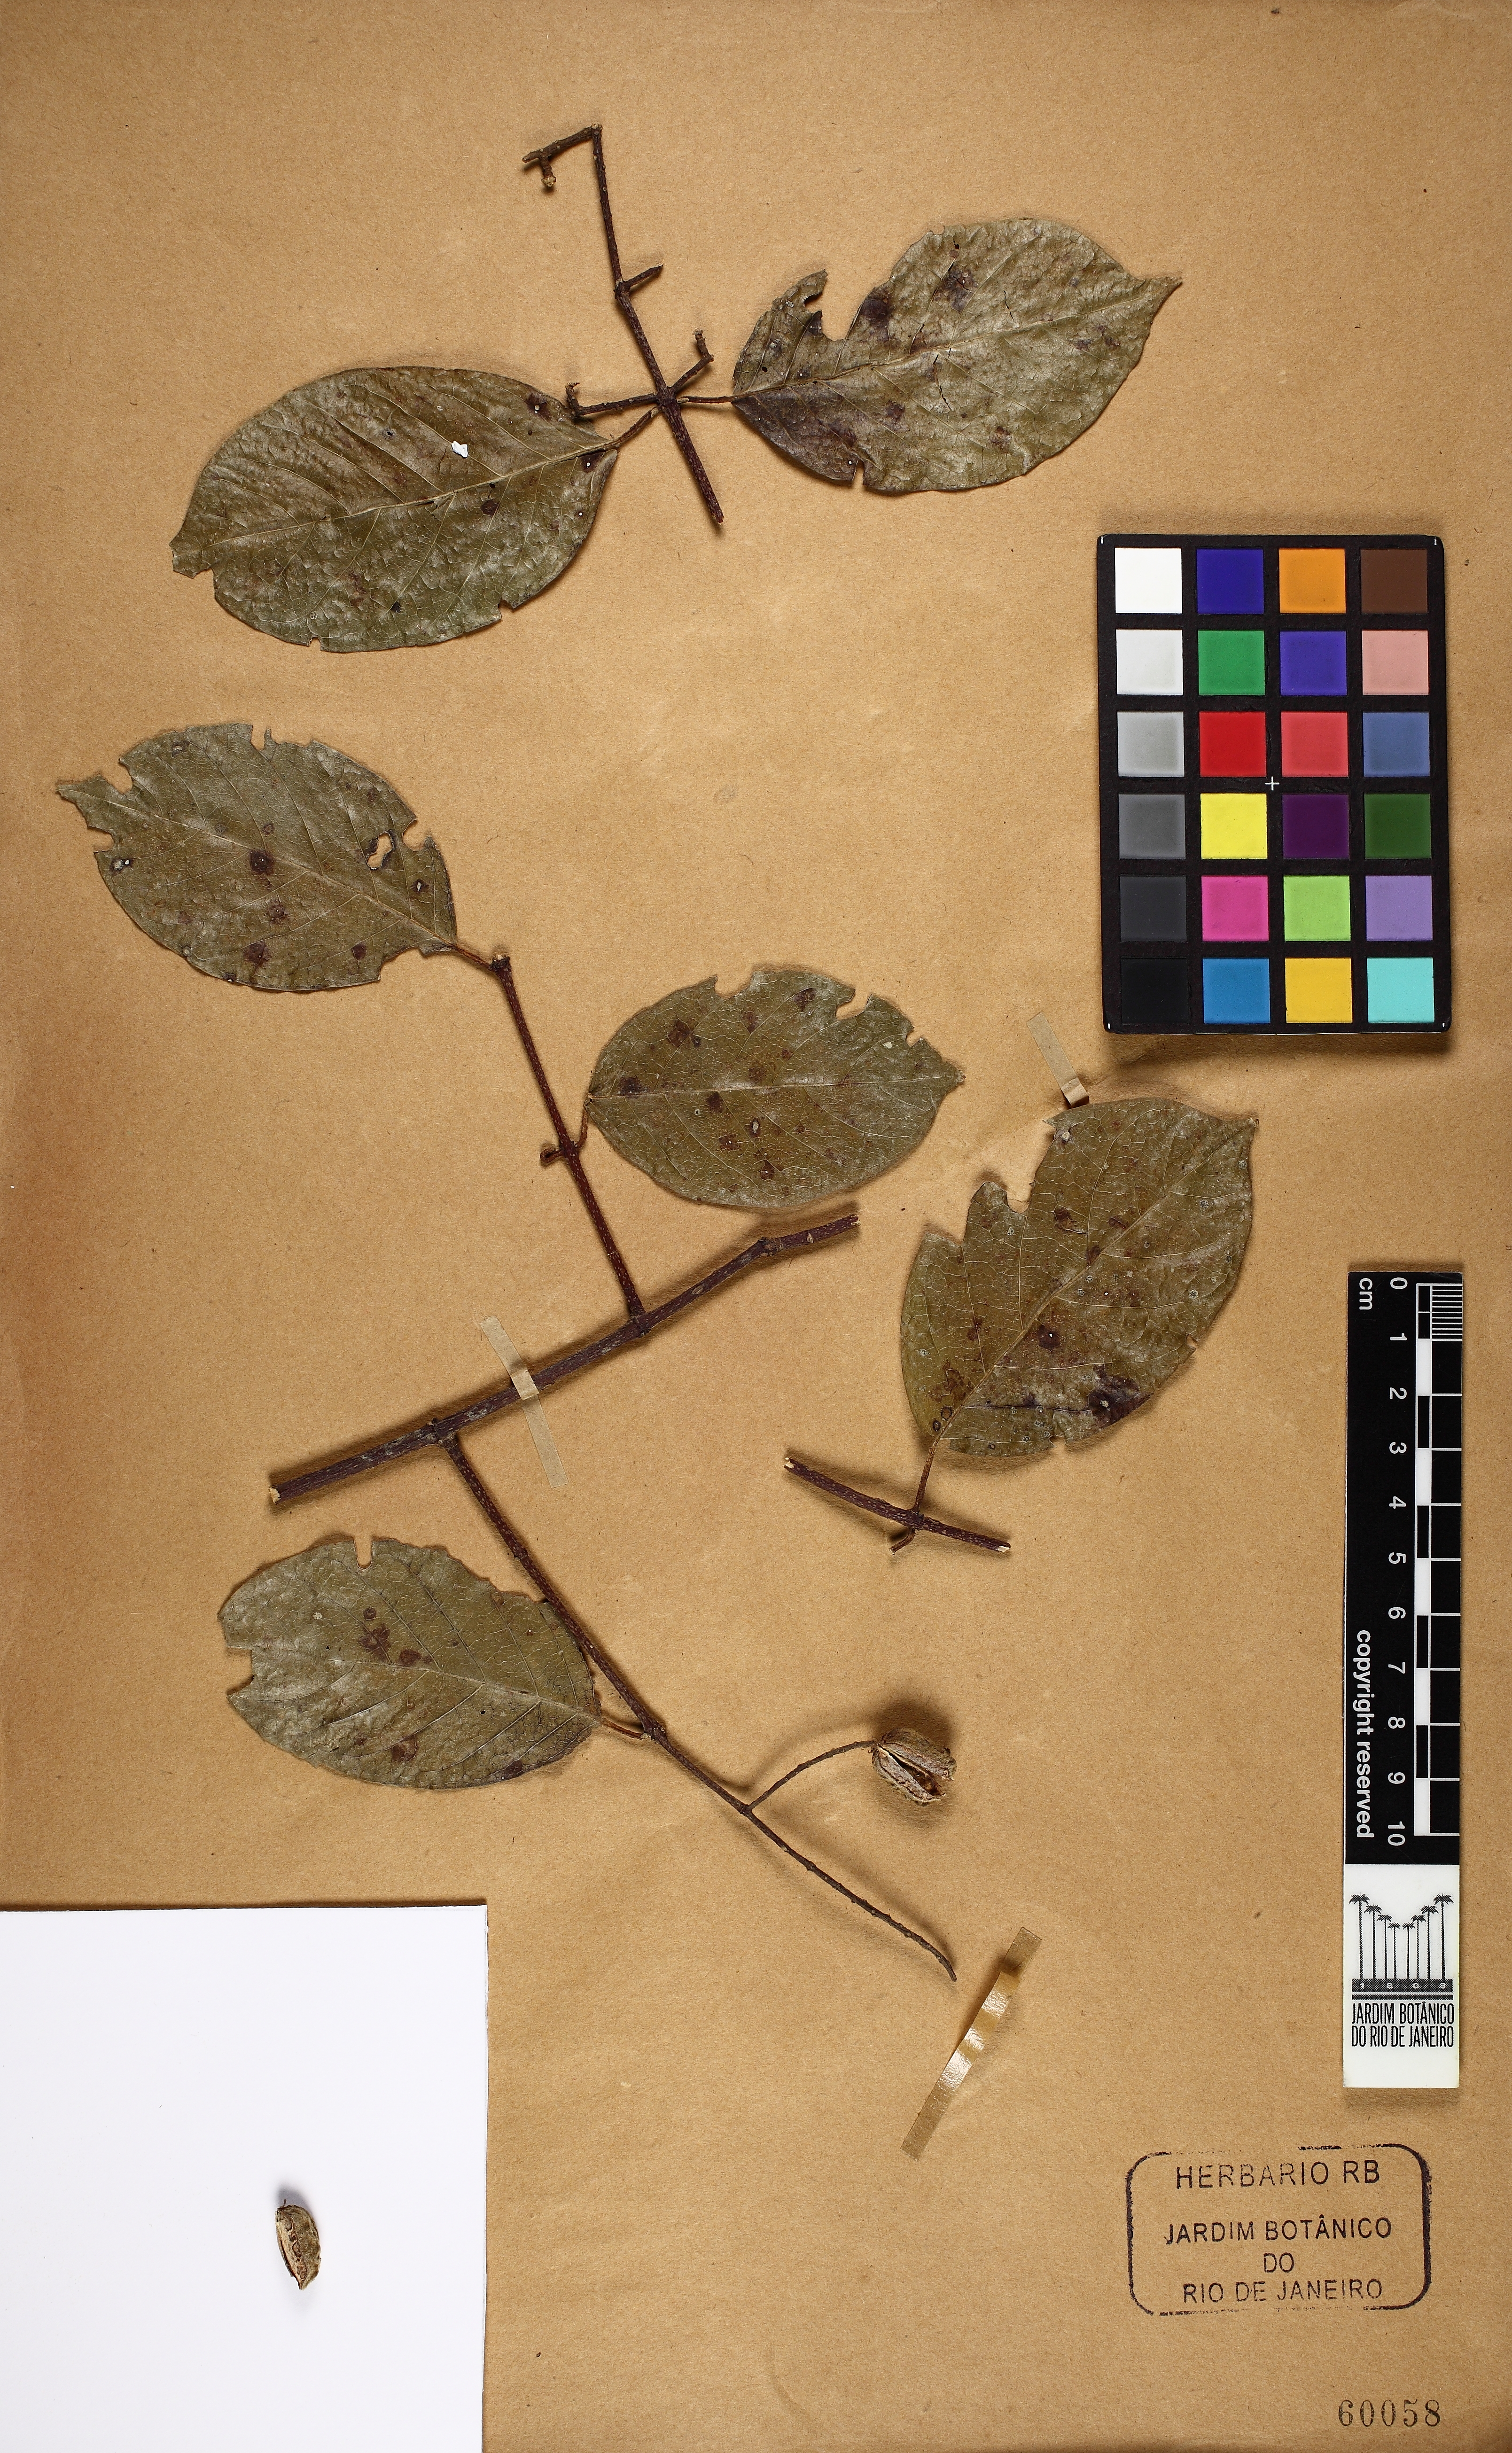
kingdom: Plantae
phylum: Tracheophyta
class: Magnoliopsida
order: Malpighiales
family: Trigoniaceae
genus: Trigonia
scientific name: Trigonia rytidocarpa
